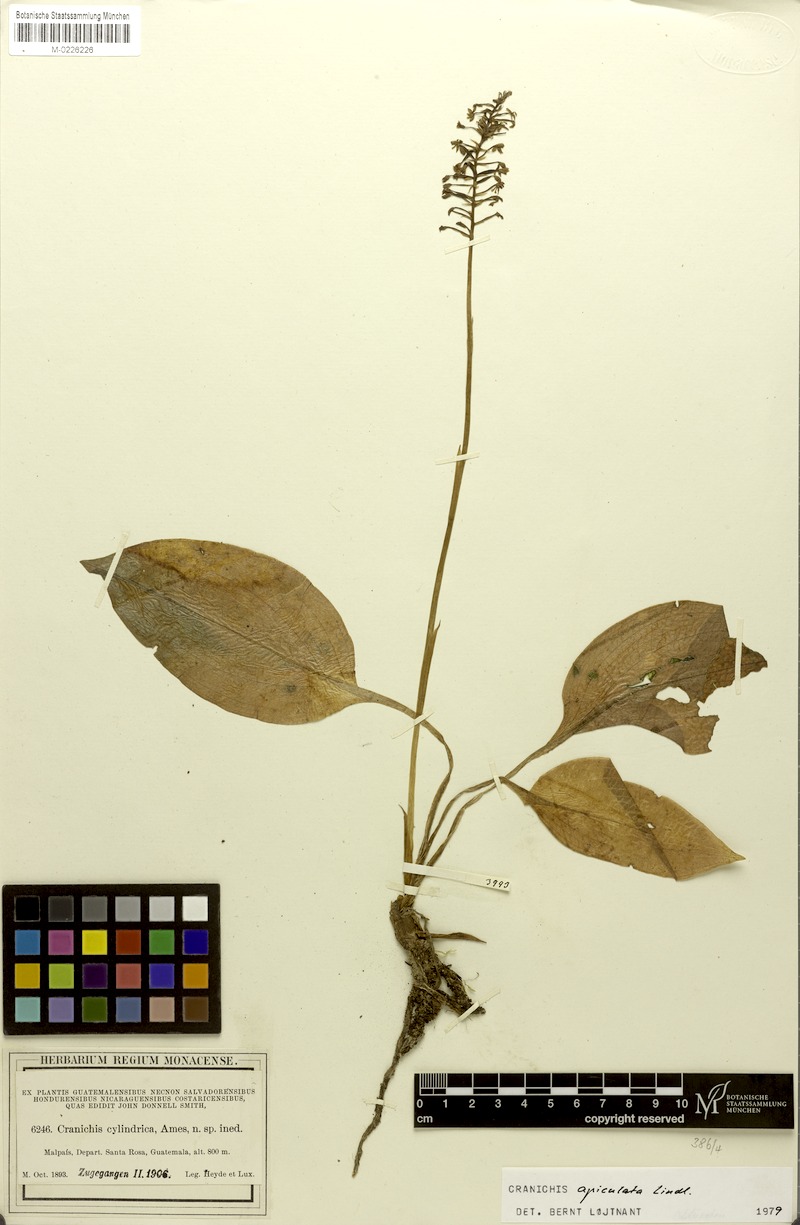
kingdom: Plantae
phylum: Tracheophyta
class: Liliopsida
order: Asparagales
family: Orchidaceae
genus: Cranichis
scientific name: Cranichis apiculata
